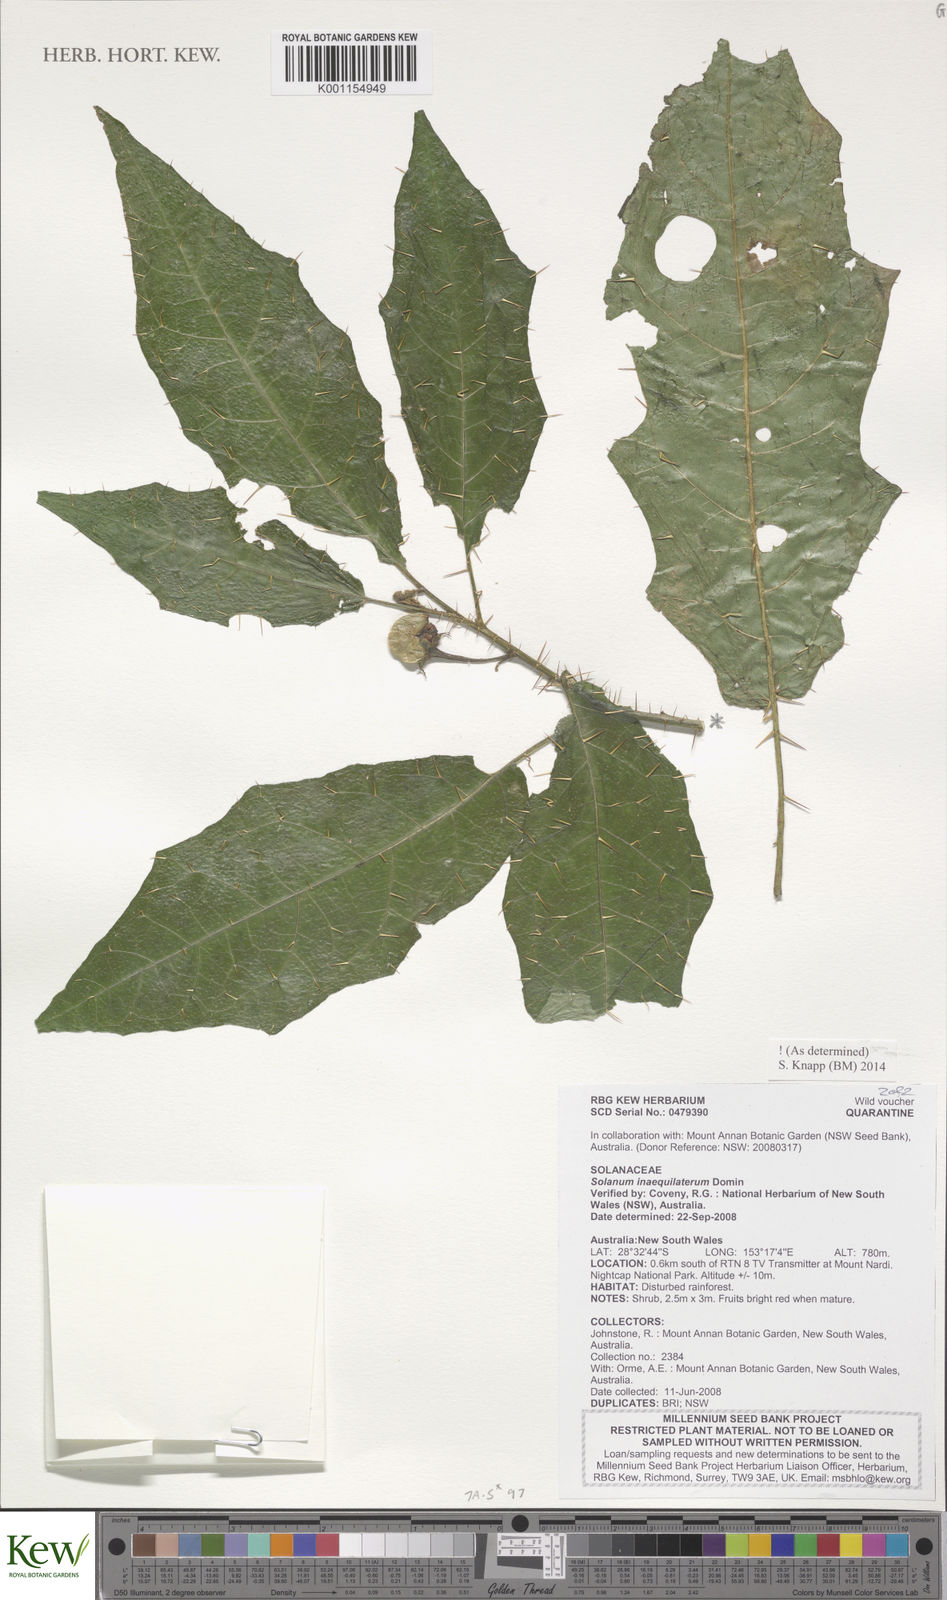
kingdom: Plantae
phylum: Tracheophyta
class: Magnoliopsida
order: Solanales
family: Solanaceae
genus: Solanum
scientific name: Solanum inaequilaterum
